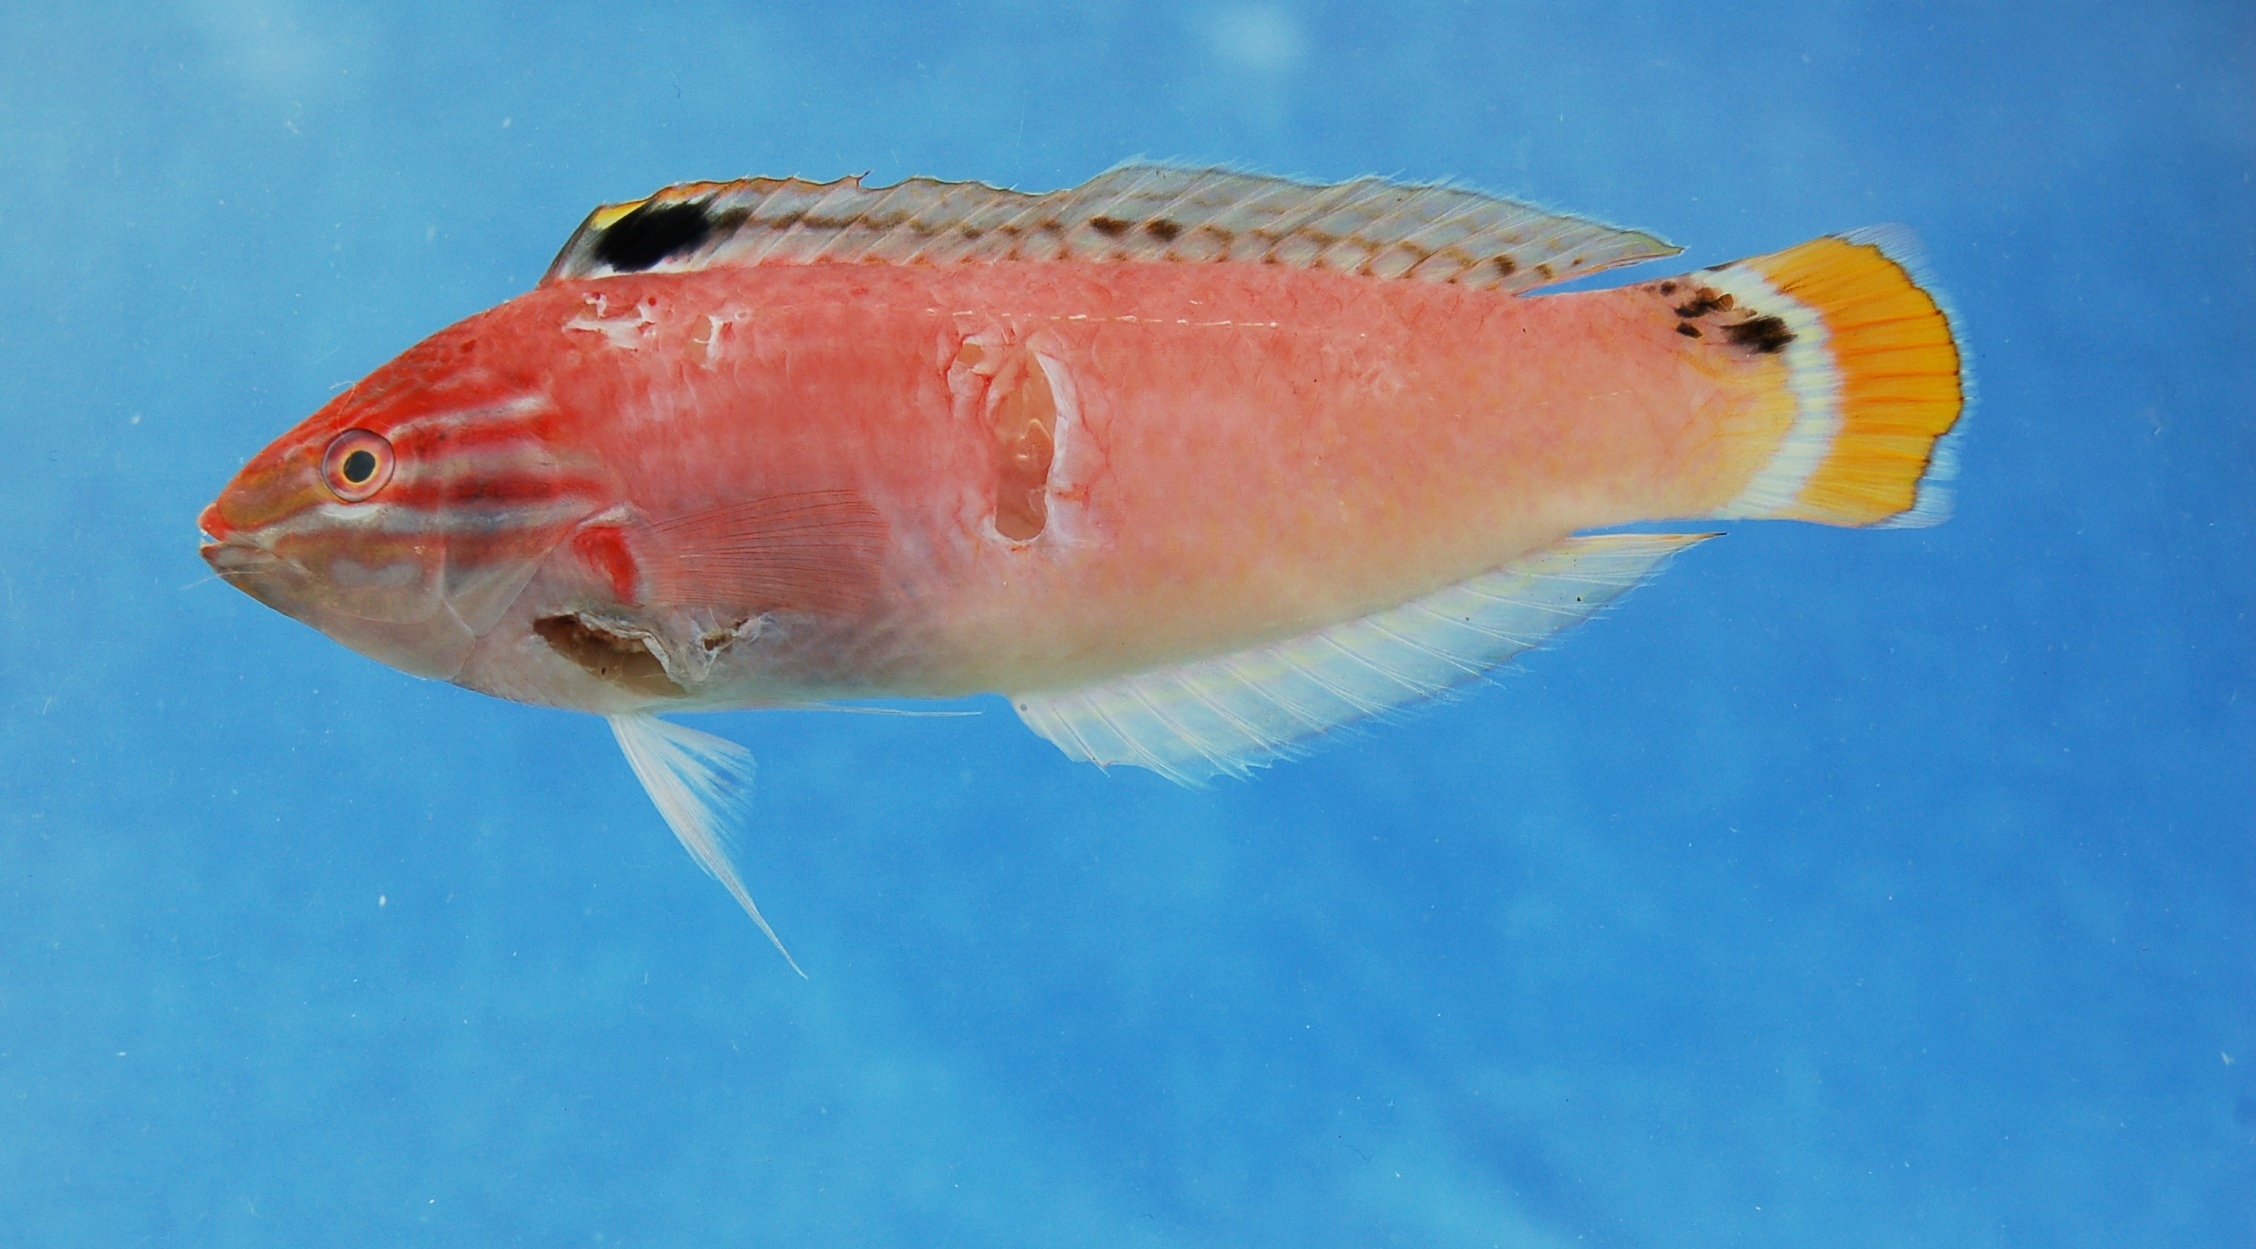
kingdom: Animalia
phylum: Chordata
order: Perciformes
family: Labridae
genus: Halichoeres
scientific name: Halichoeres trispilus
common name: Threespot wrasse
